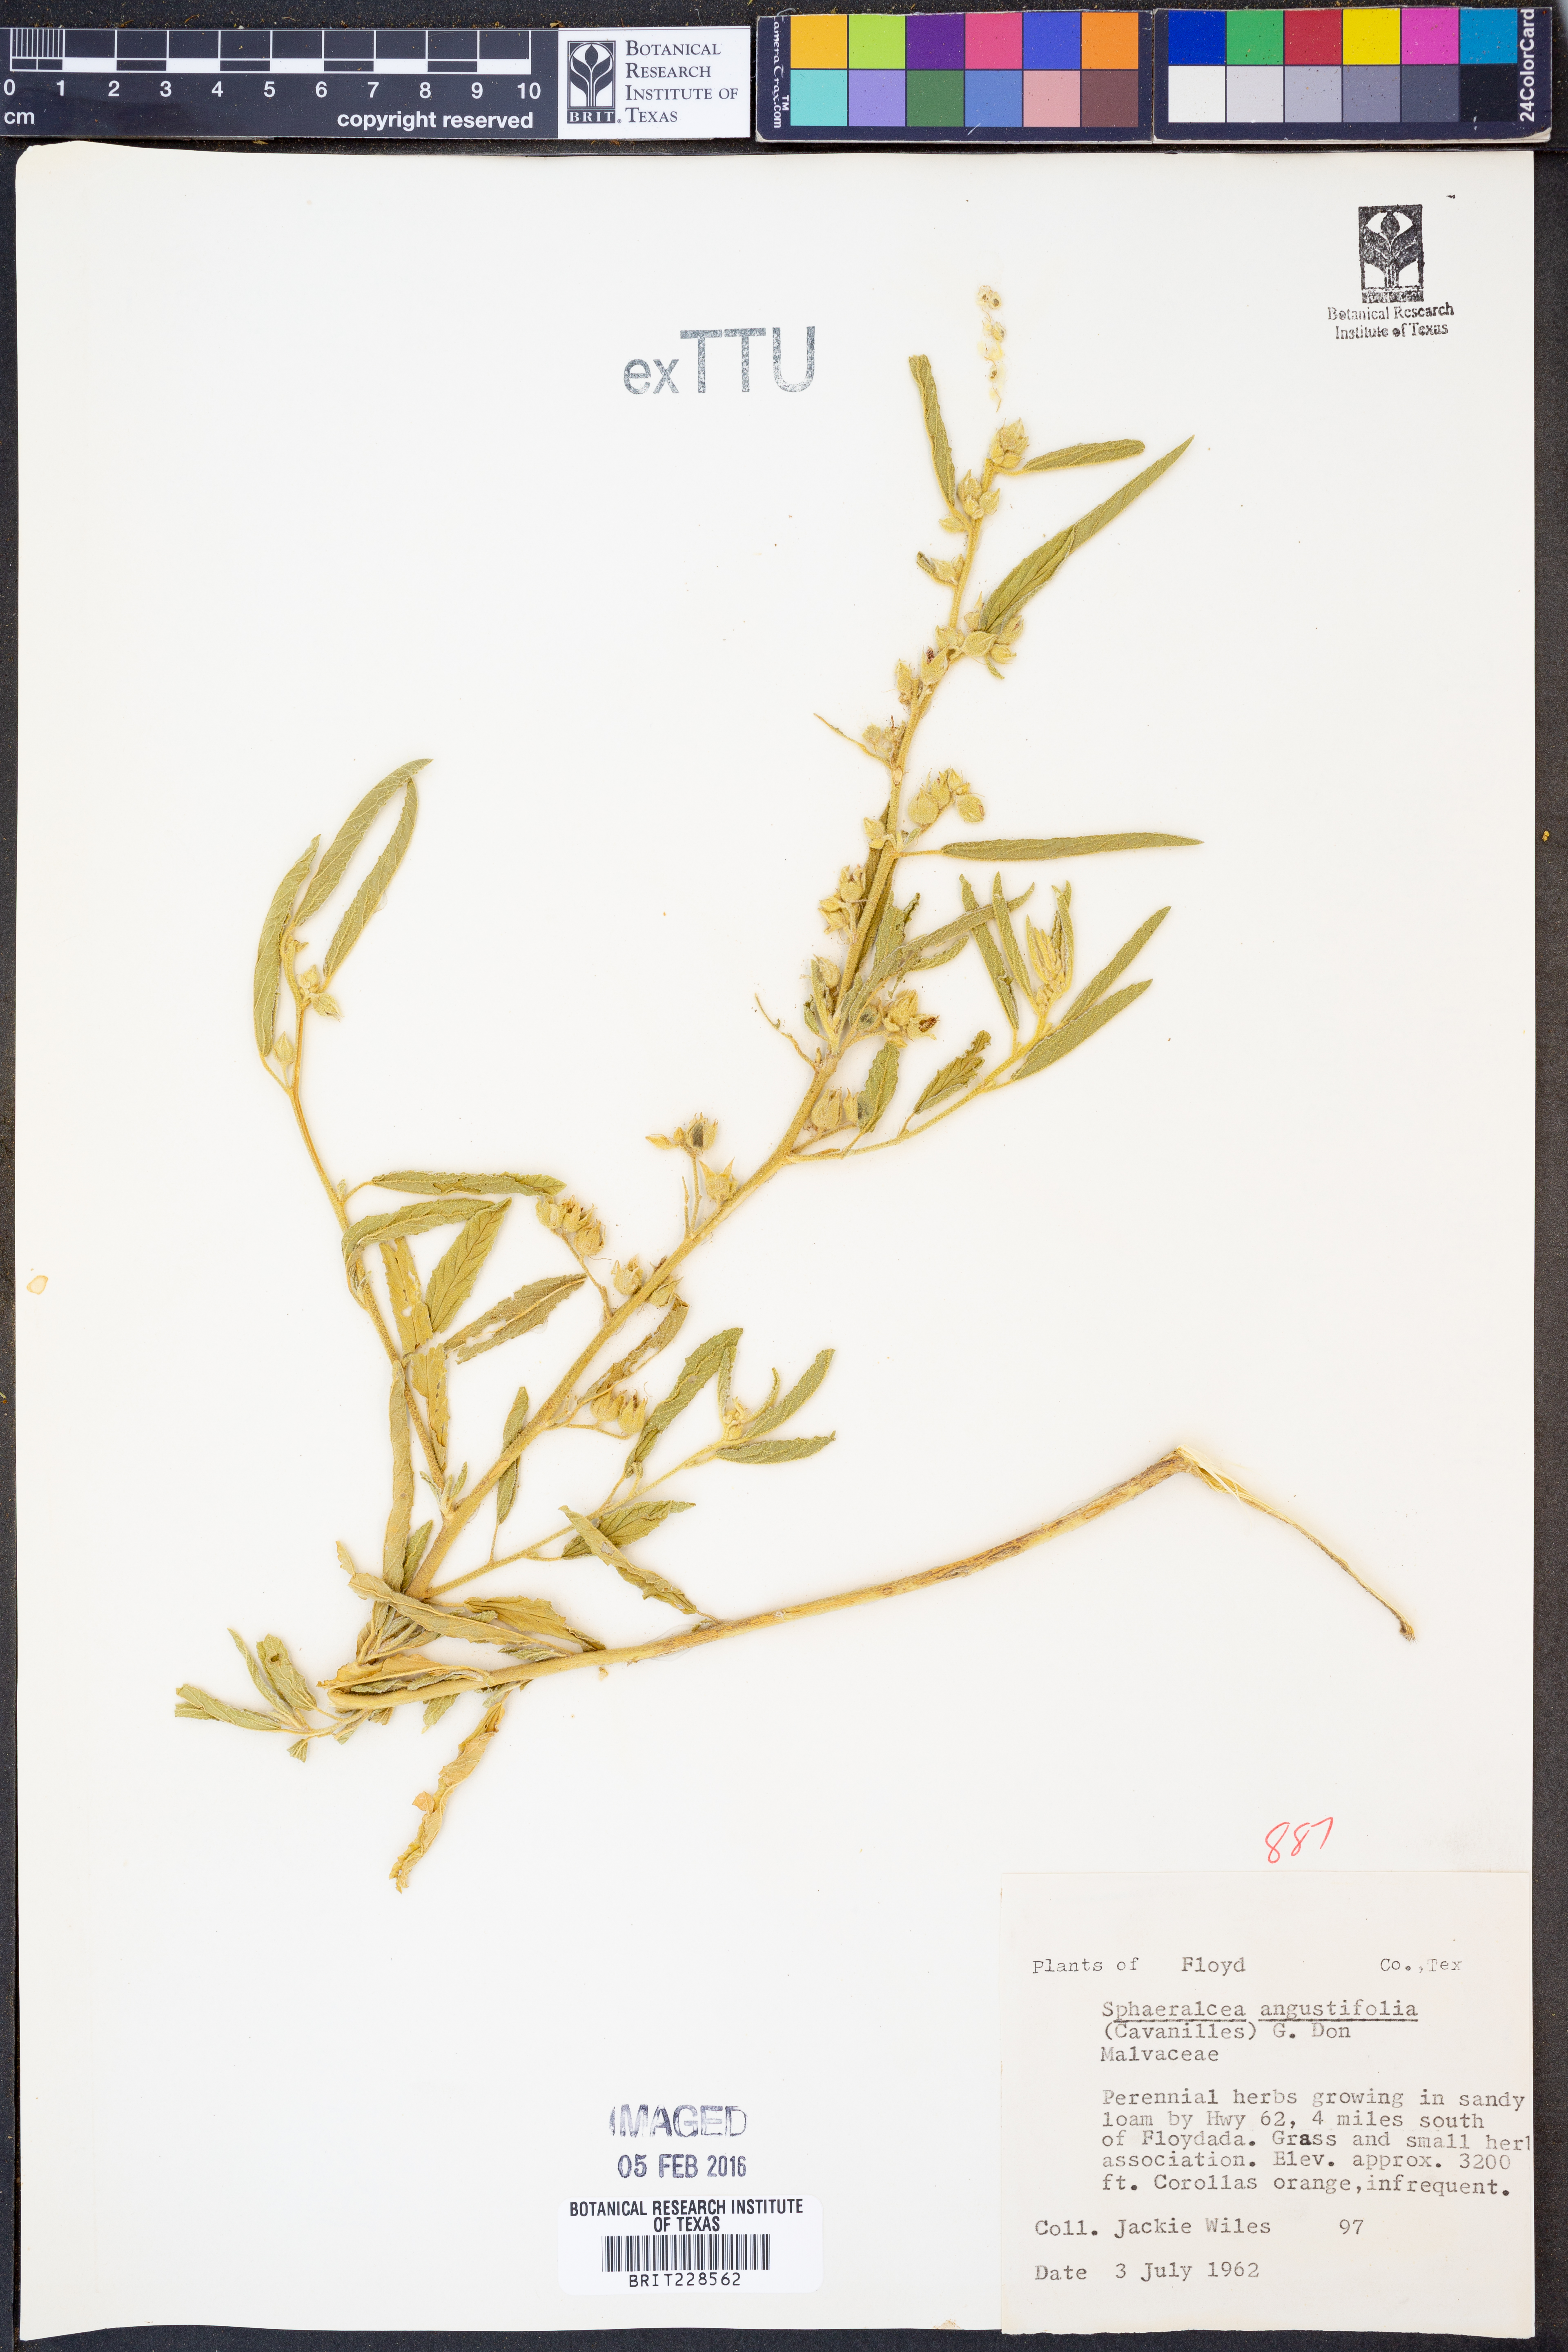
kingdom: Plantae
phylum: Tracheophyta
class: Magnoliopsida
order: Malvales
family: Malvaceae
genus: Sphaeralcea
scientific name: Sphaeralcea angustifolia
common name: Copper globe-mallow
